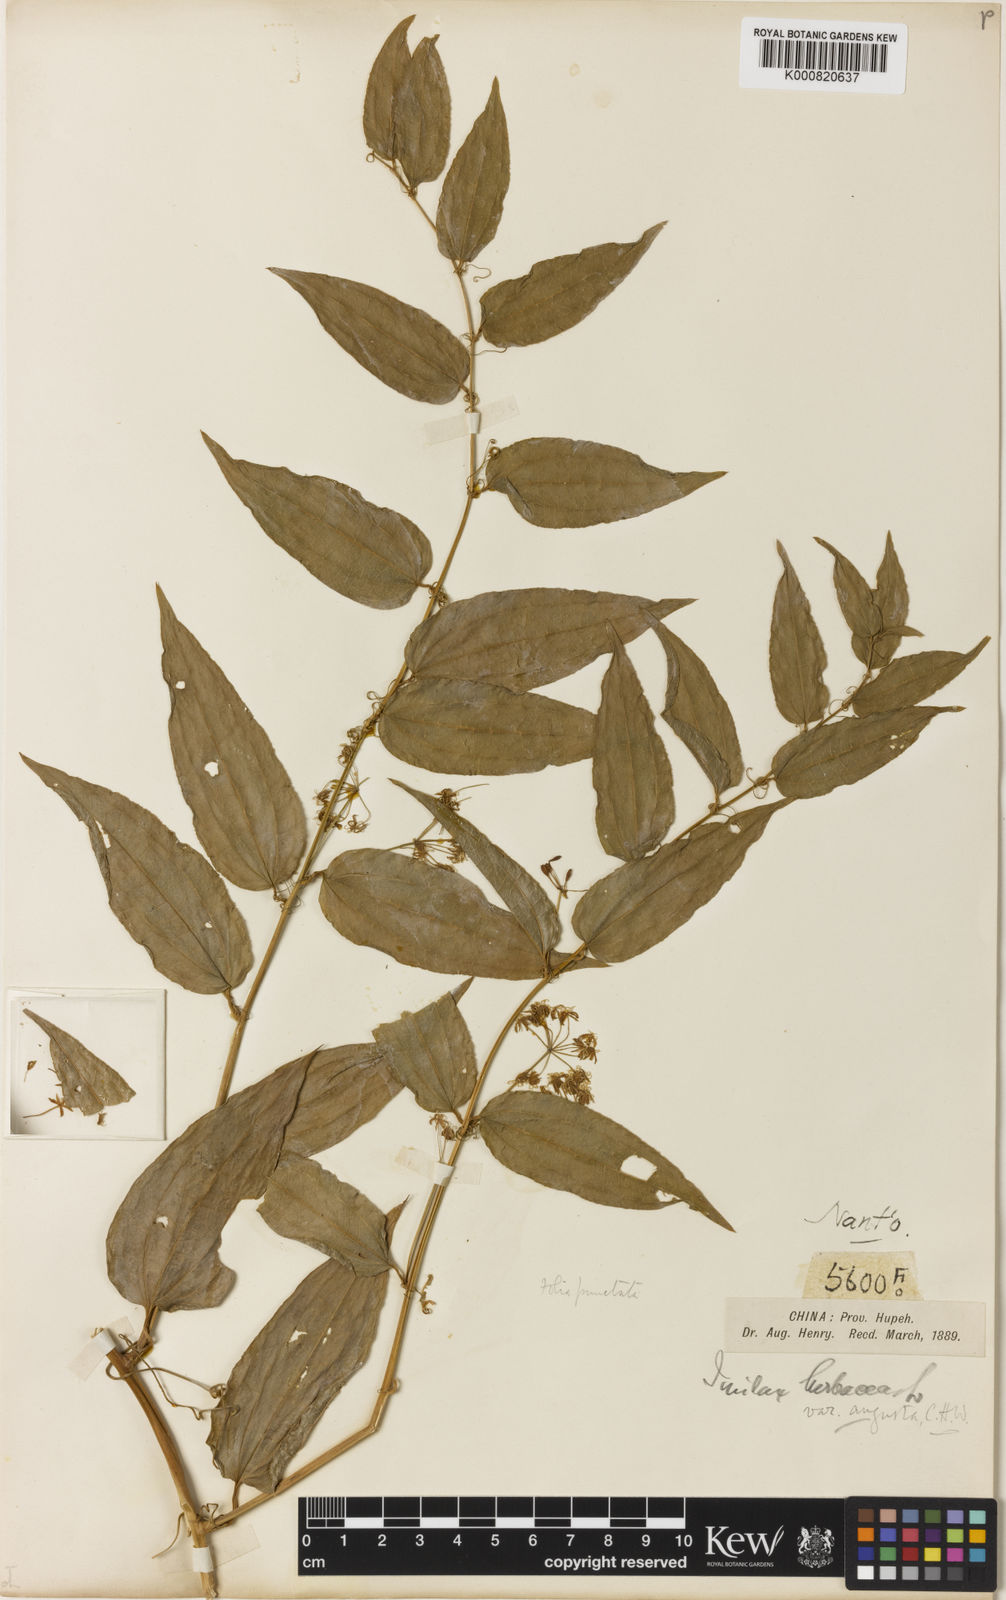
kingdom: Plantae
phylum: Tracheophyta
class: Liliopsida
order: Liliales
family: Smilacaceae
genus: Smilax
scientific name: Smilax riparia
